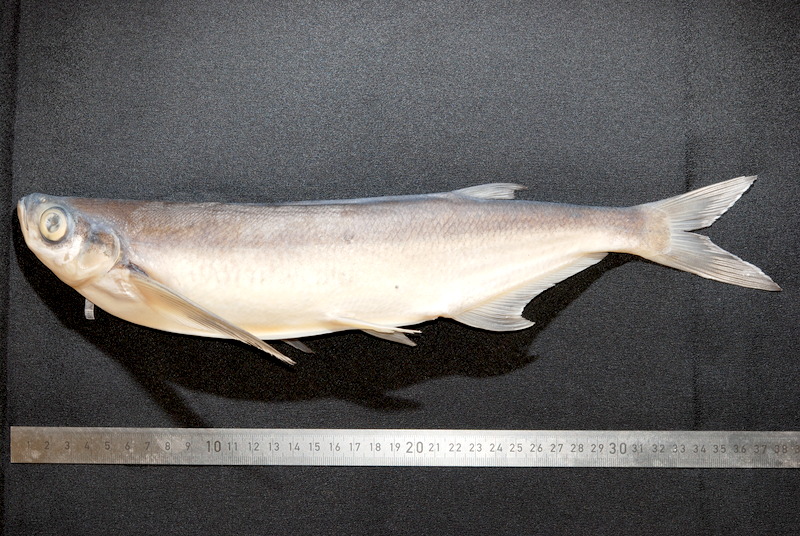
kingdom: Animalia
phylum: Chordata
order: Cypriniformes
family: Cyprinidae
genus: Pelecus
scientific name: Pelecus cultratus
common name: Ziege
